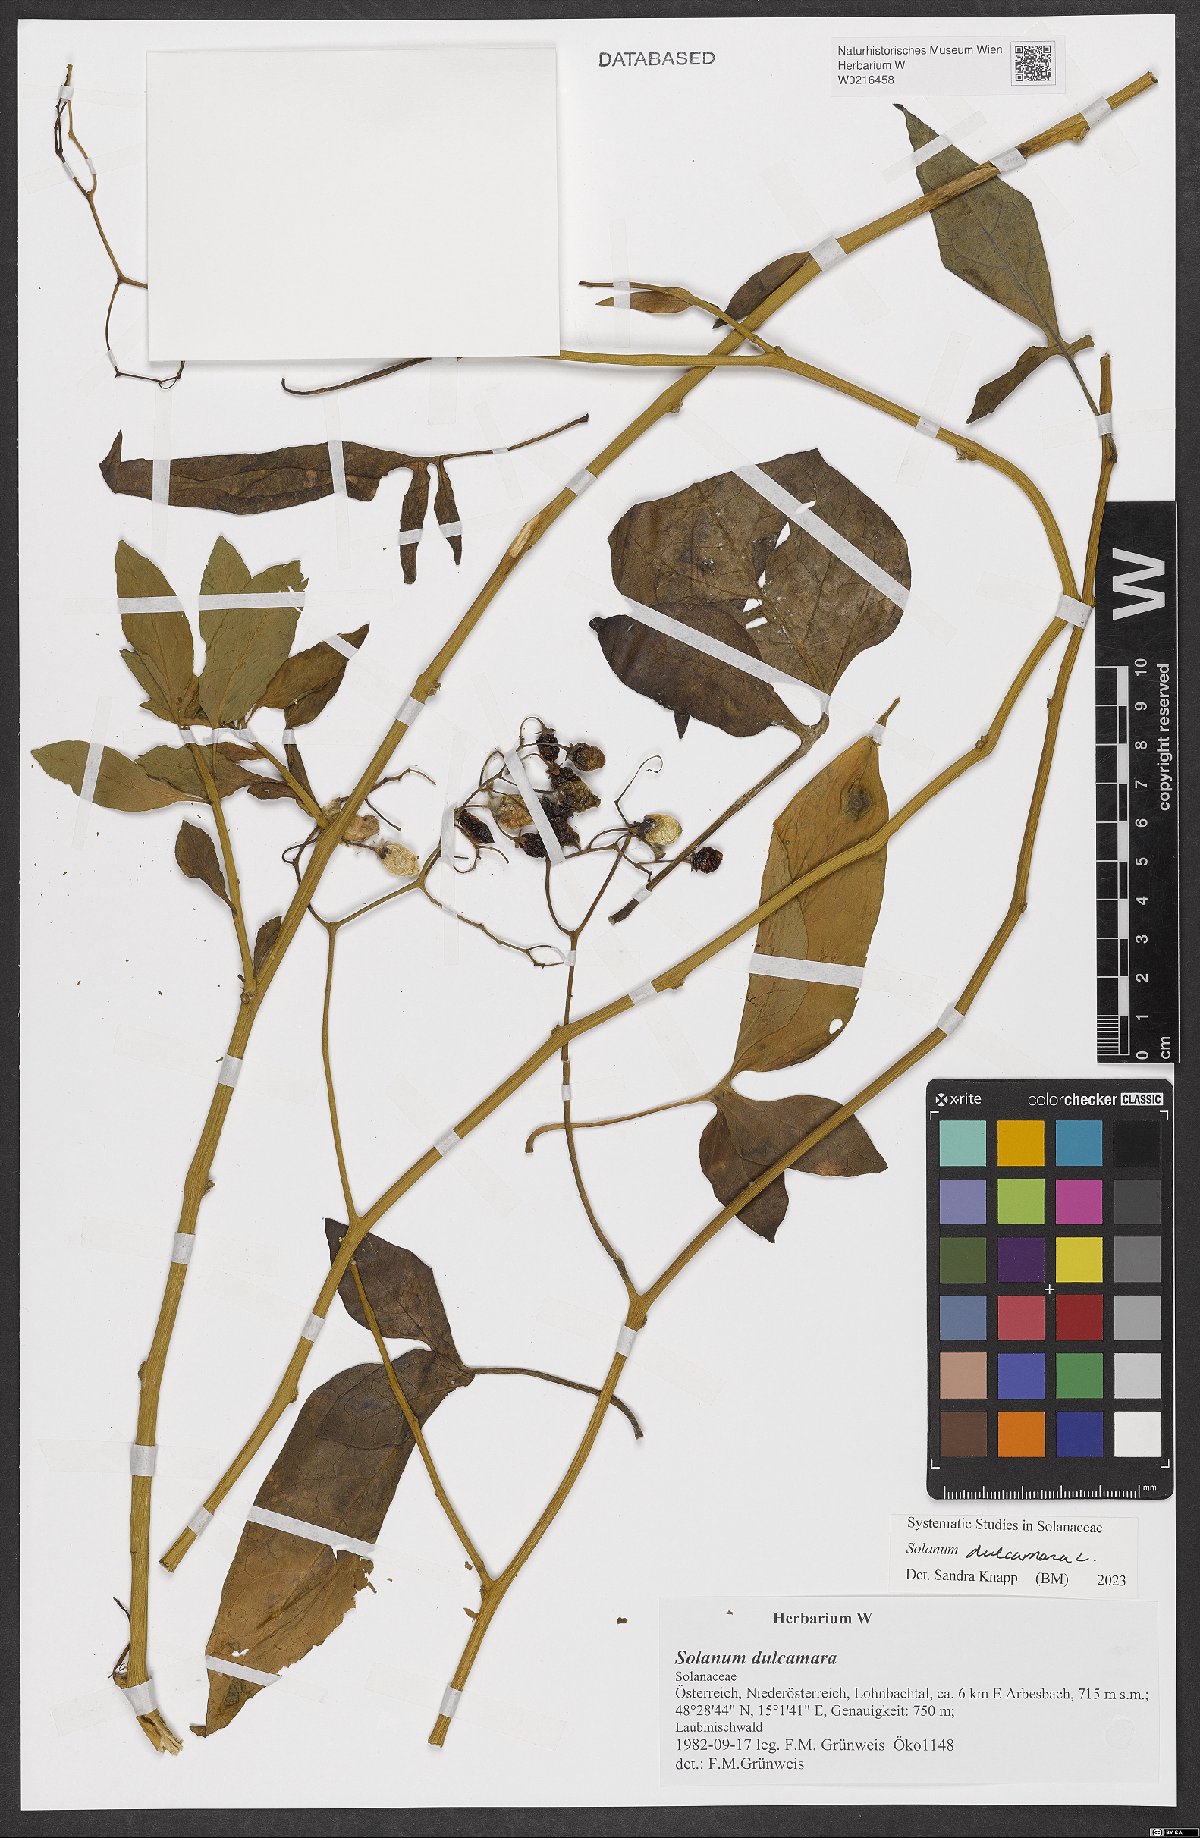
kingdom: Plantae
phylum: Tracheophyta
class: Magnoliopsida
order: Solanales
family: Solanaceae
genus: Solanum
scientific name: Solanum dulcamara
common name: Climbing nightshade
